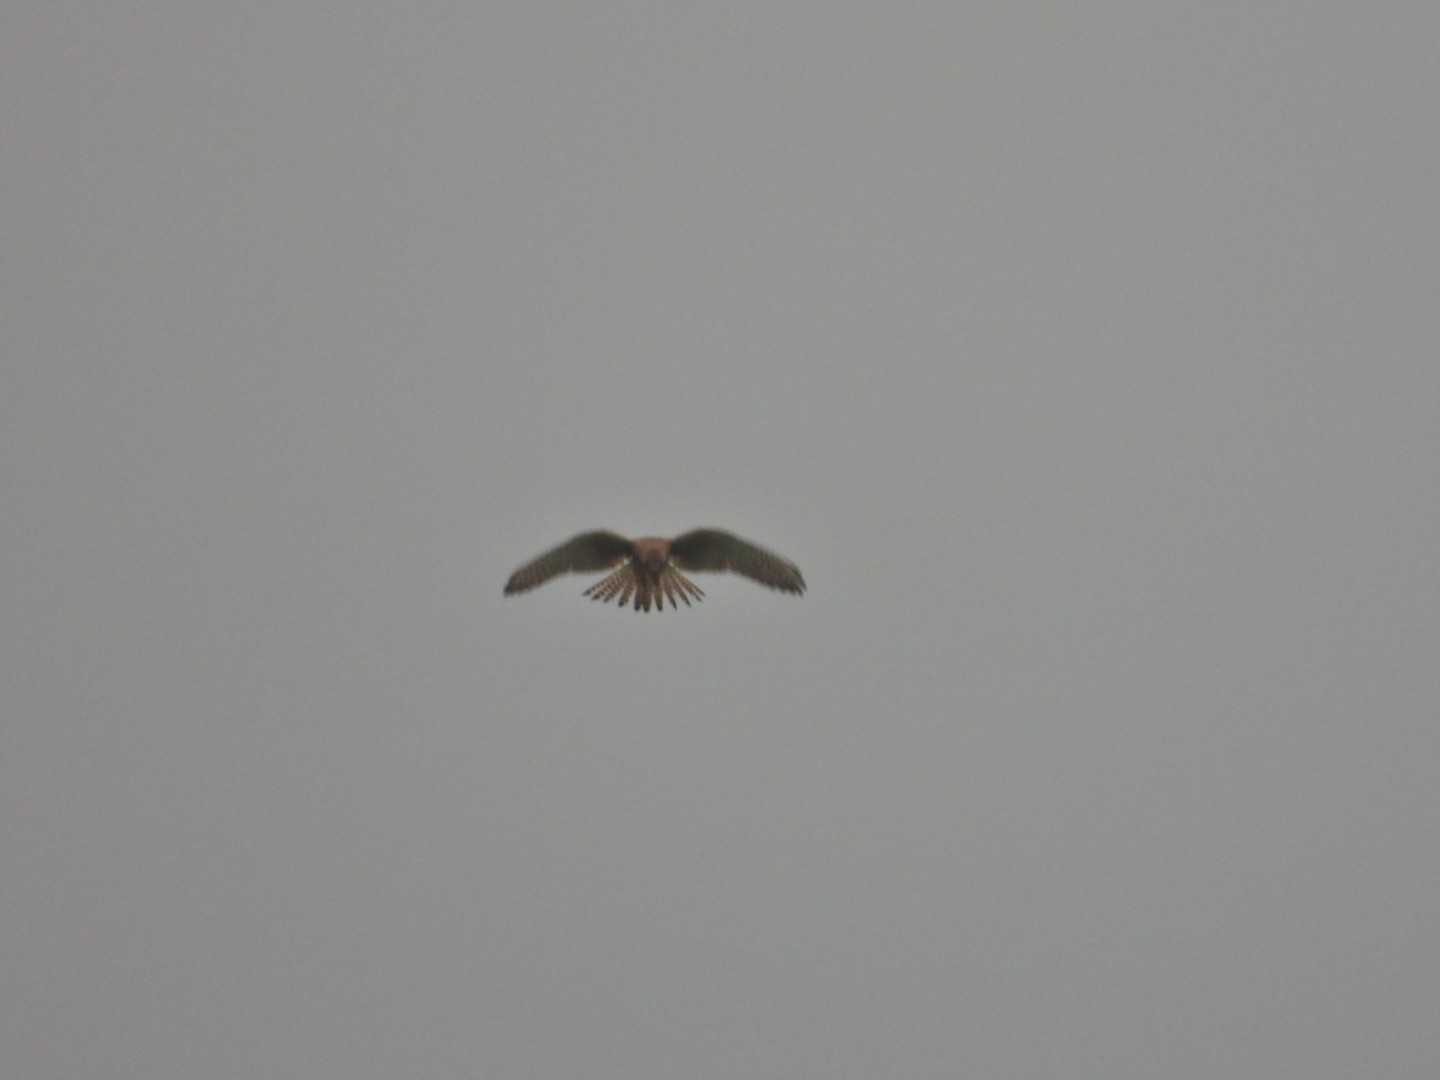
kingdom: Animalia
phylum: Chordata
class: Aves
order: Falconiformes
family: Falconidae
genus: Falco
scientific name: Falco tinnunculus
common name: Tårnfalk
